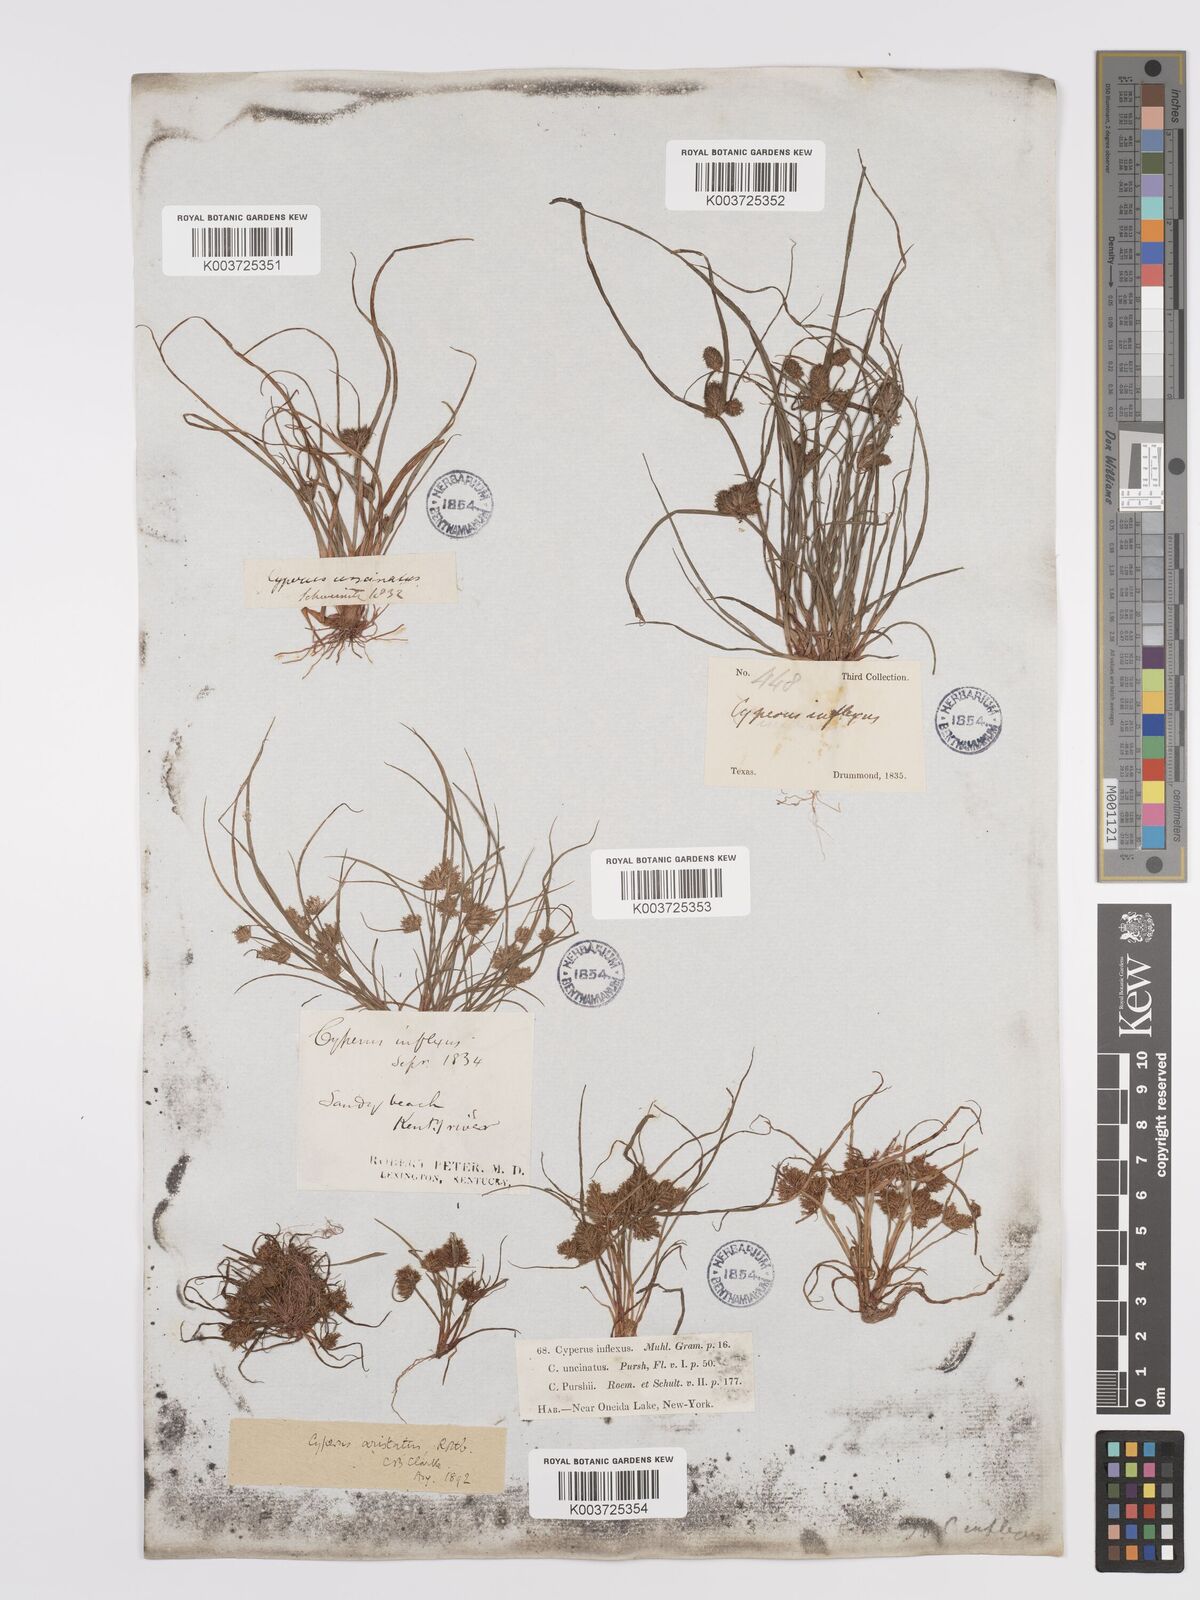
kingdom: Plantae
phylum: Tracheophyta
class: Liliopsida
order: Poales
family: Cyperaceae
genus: Cyperus
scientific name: Cyperus squarrosus
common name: Awned cyperus
